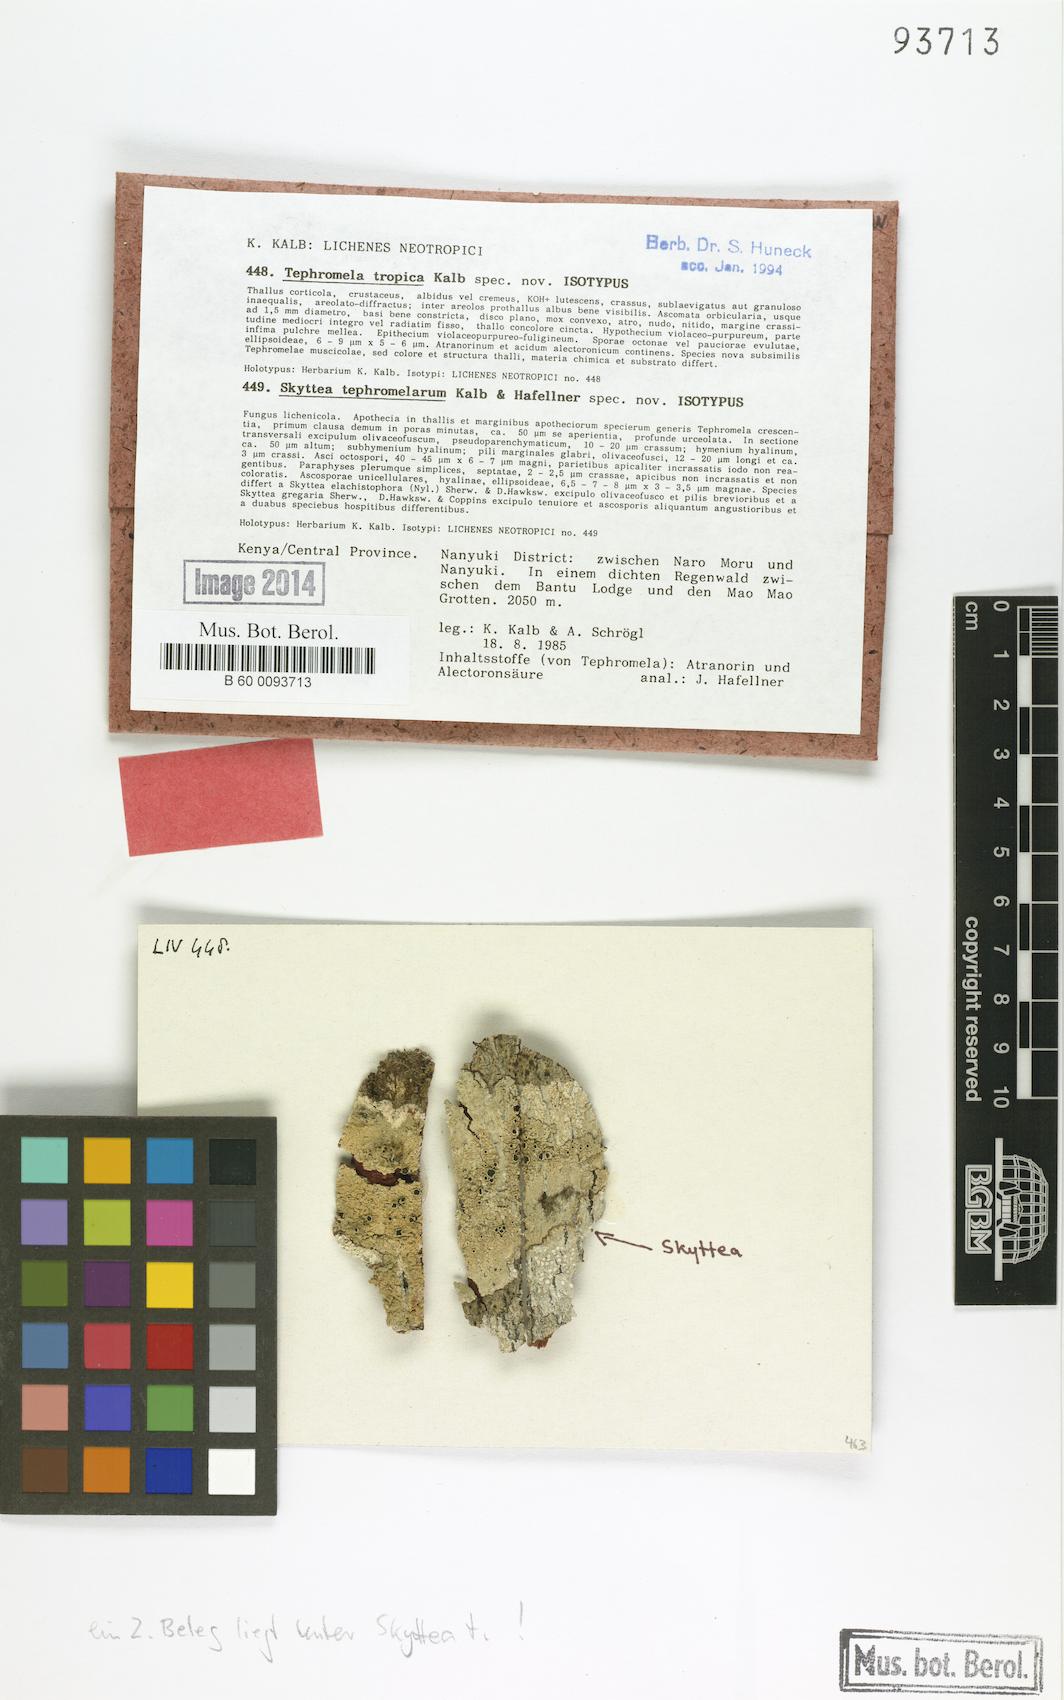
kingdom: Fungi
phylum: Ascomycota
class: Lecanoromycetes
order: Lecanorales
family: Tephromelataceae
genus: Tephromela
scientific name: Tephromela tropica
